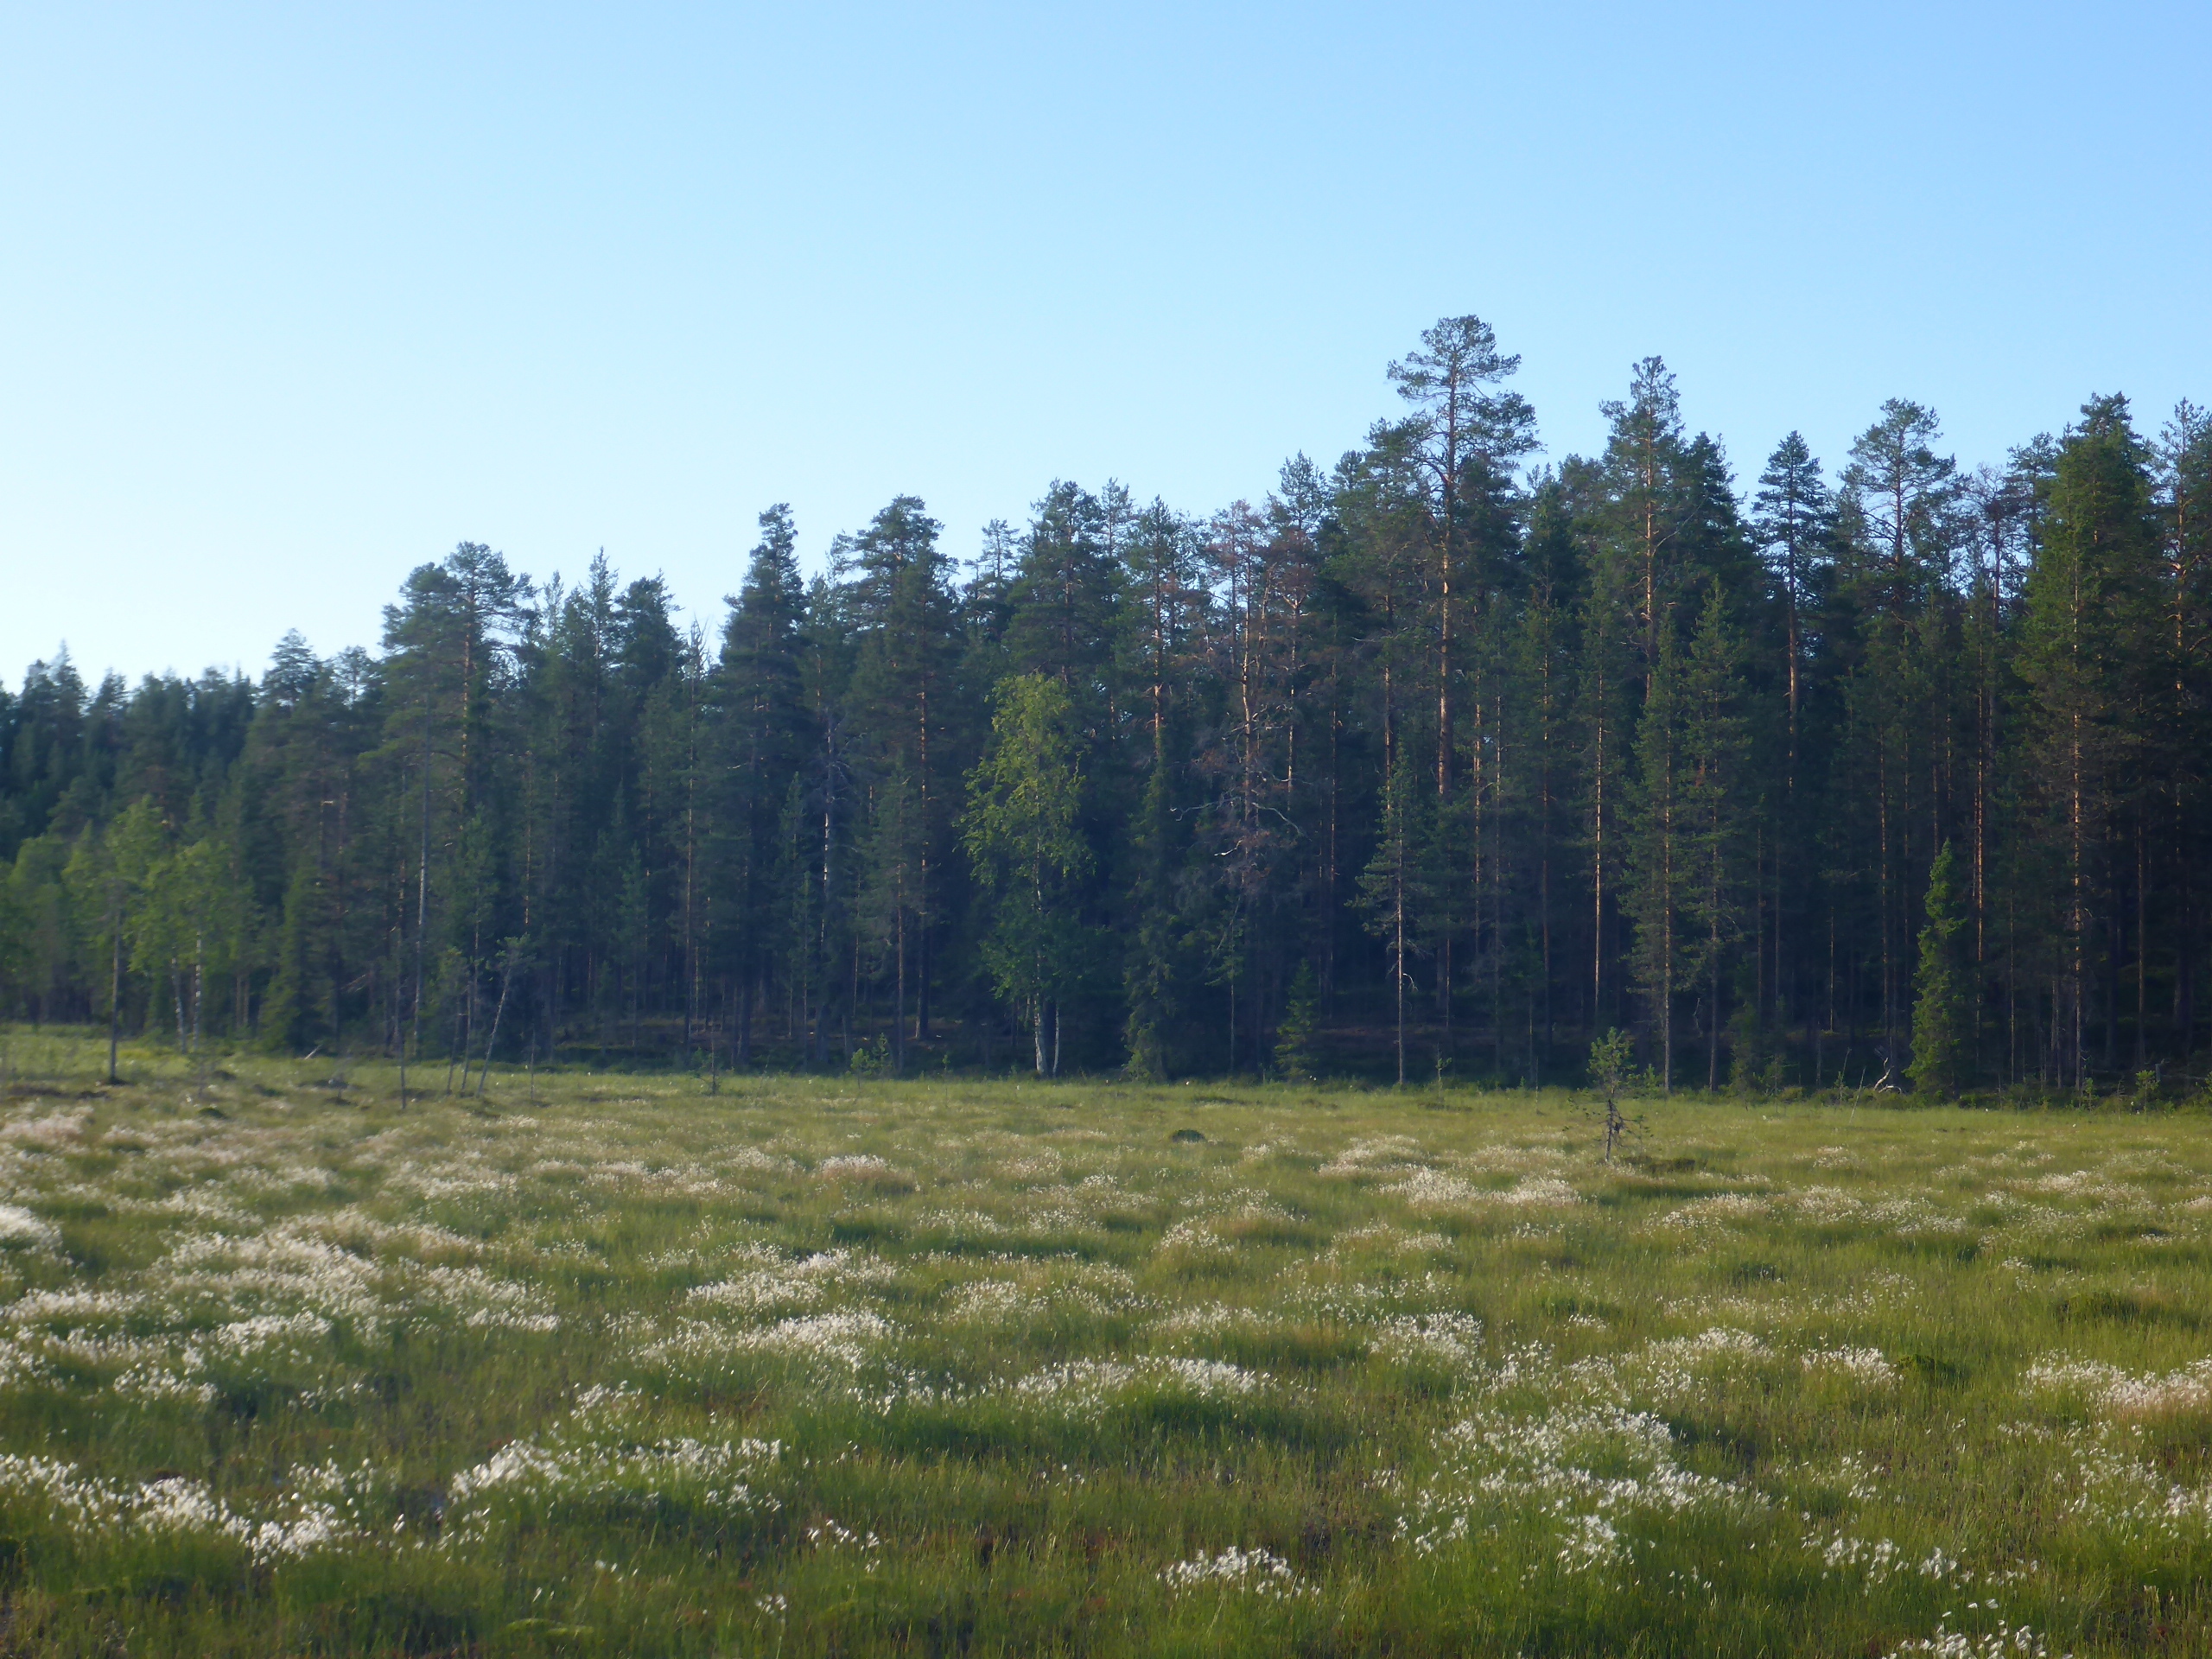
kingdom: Plantae
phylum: Tracheophyta
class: Liliopsida
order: Poales
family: Cyperaceae
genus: Eriophorum
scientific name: Eriophorum vaginatum
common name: Hare's-tail cottongrass
